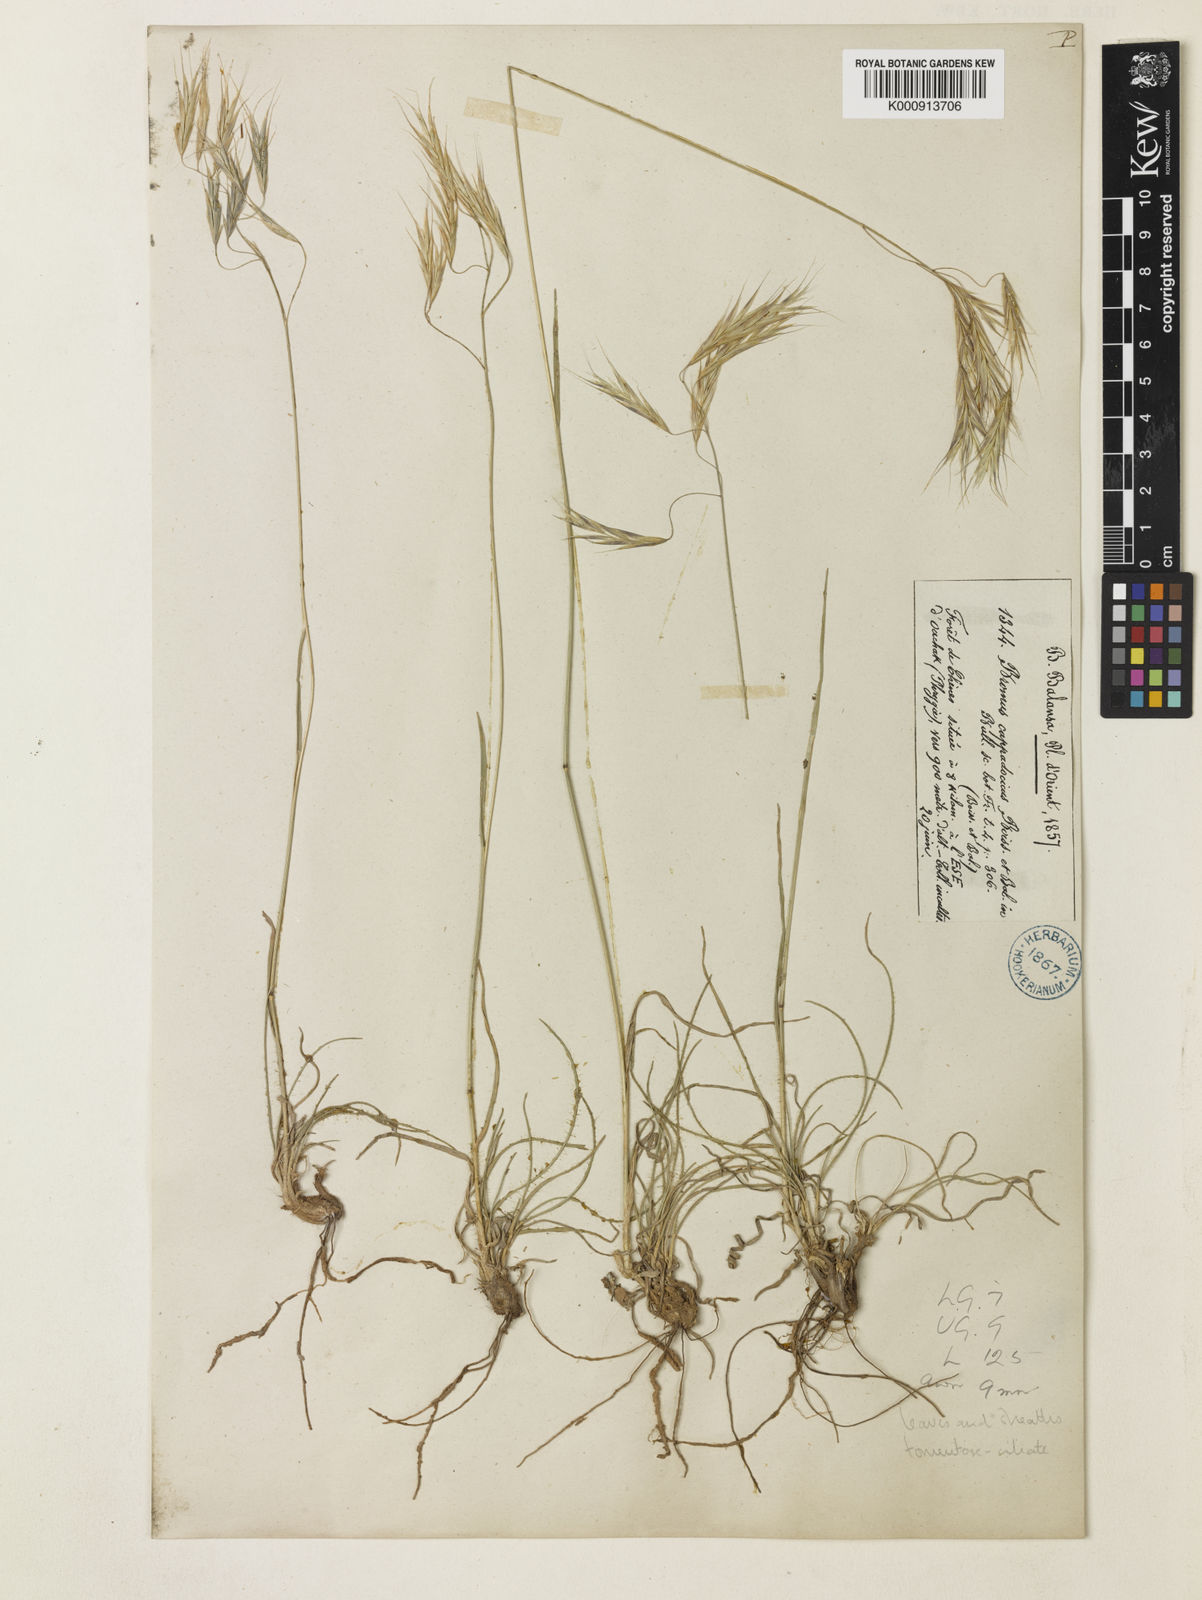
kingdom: Plantae
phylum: Tracheophyta
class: Liliopsida
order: Poales
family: Poaceae
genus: Bromus
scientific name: Bromus sclerophyllus
